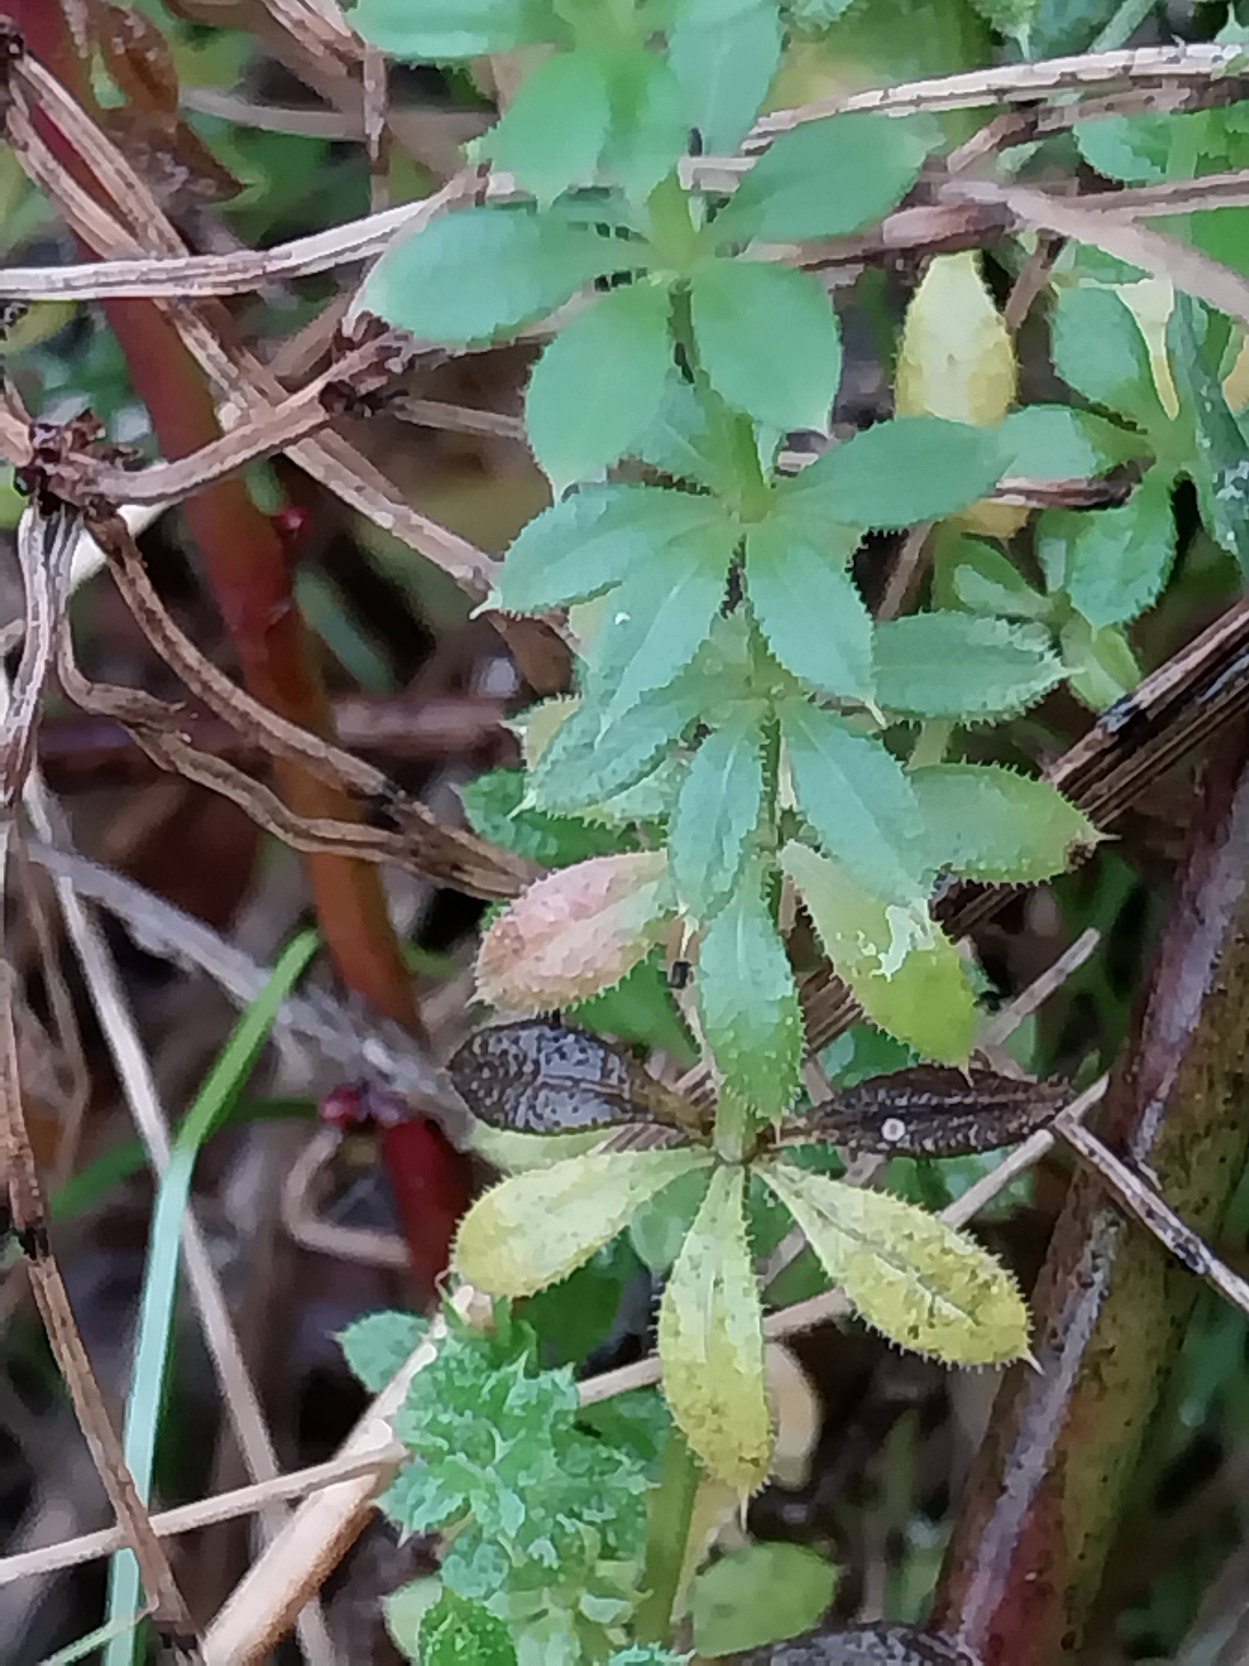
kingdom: Plantae
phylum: Tracheophyta
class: Magnoliopsida
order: Gentianales
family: Rubiaceae
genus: Galium
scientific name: Galium aparine
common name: Burre-snerre
